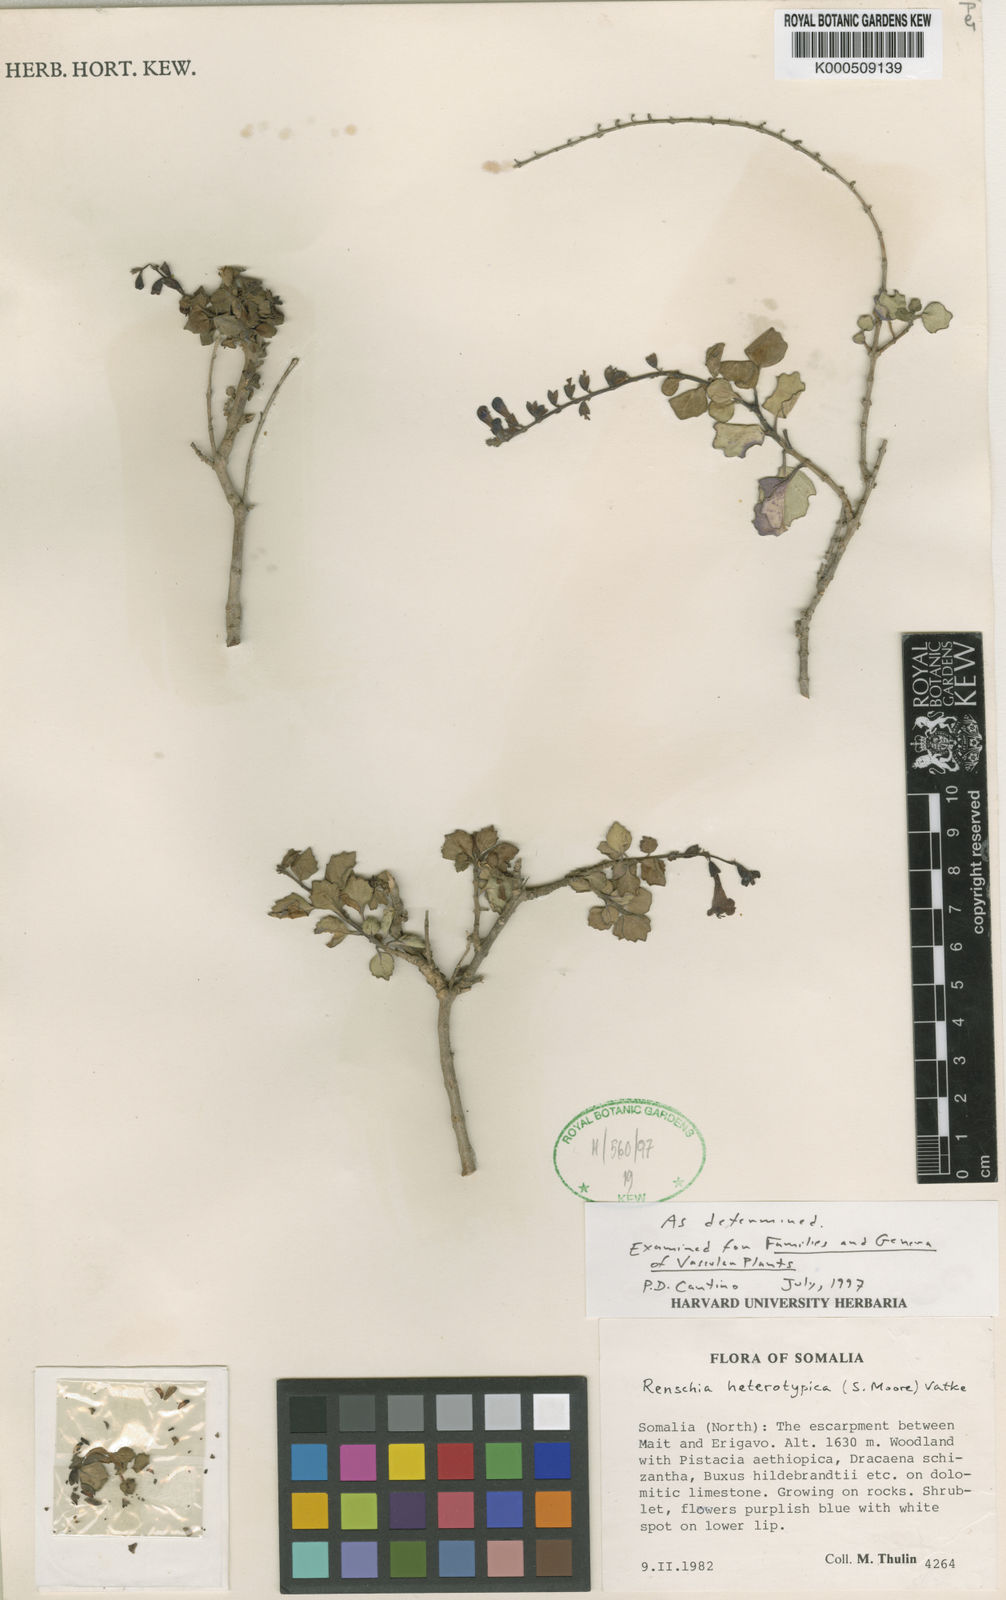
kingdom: Plantae
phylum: Tracheophyta
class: Magnoliopsida
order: Lamiales
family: Lamiaceae
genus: Renschia
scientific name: Renschia heterotypica
